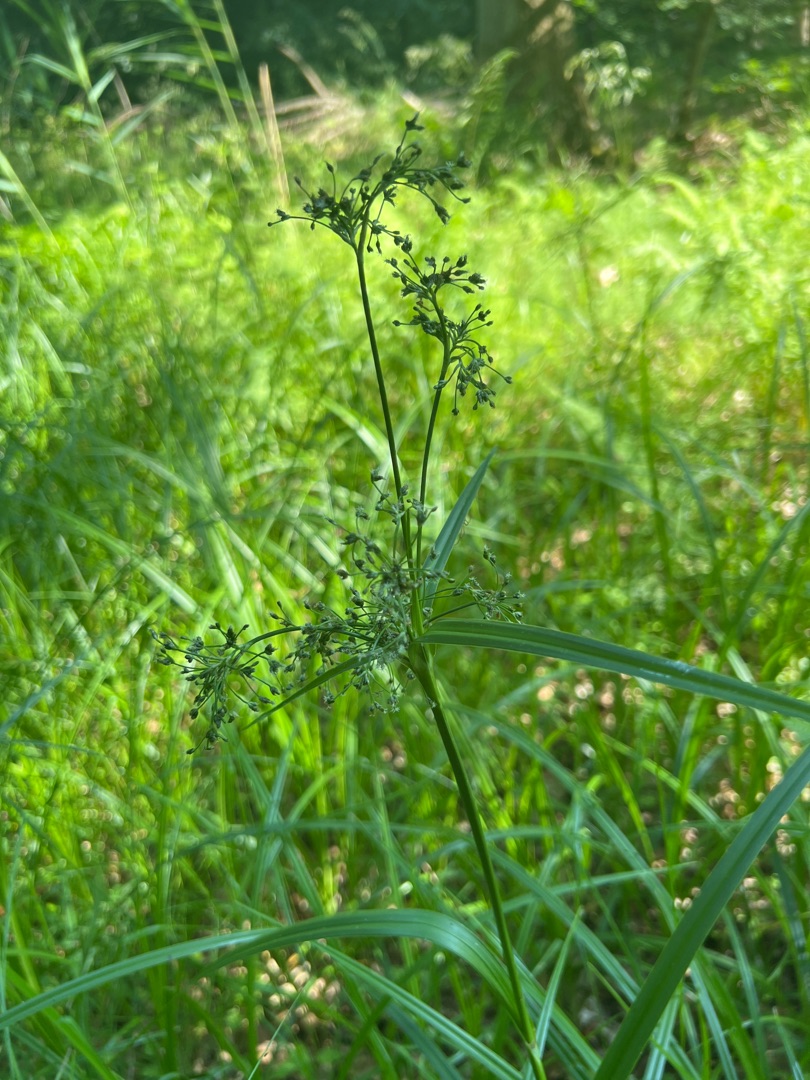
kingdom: Plantae
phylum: Tracheophyta
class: Liliopsida
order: Poales
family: Cyperaceae
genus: Scirpus
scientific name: Scirpus sylvaticus
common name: Skov-kogleaks
